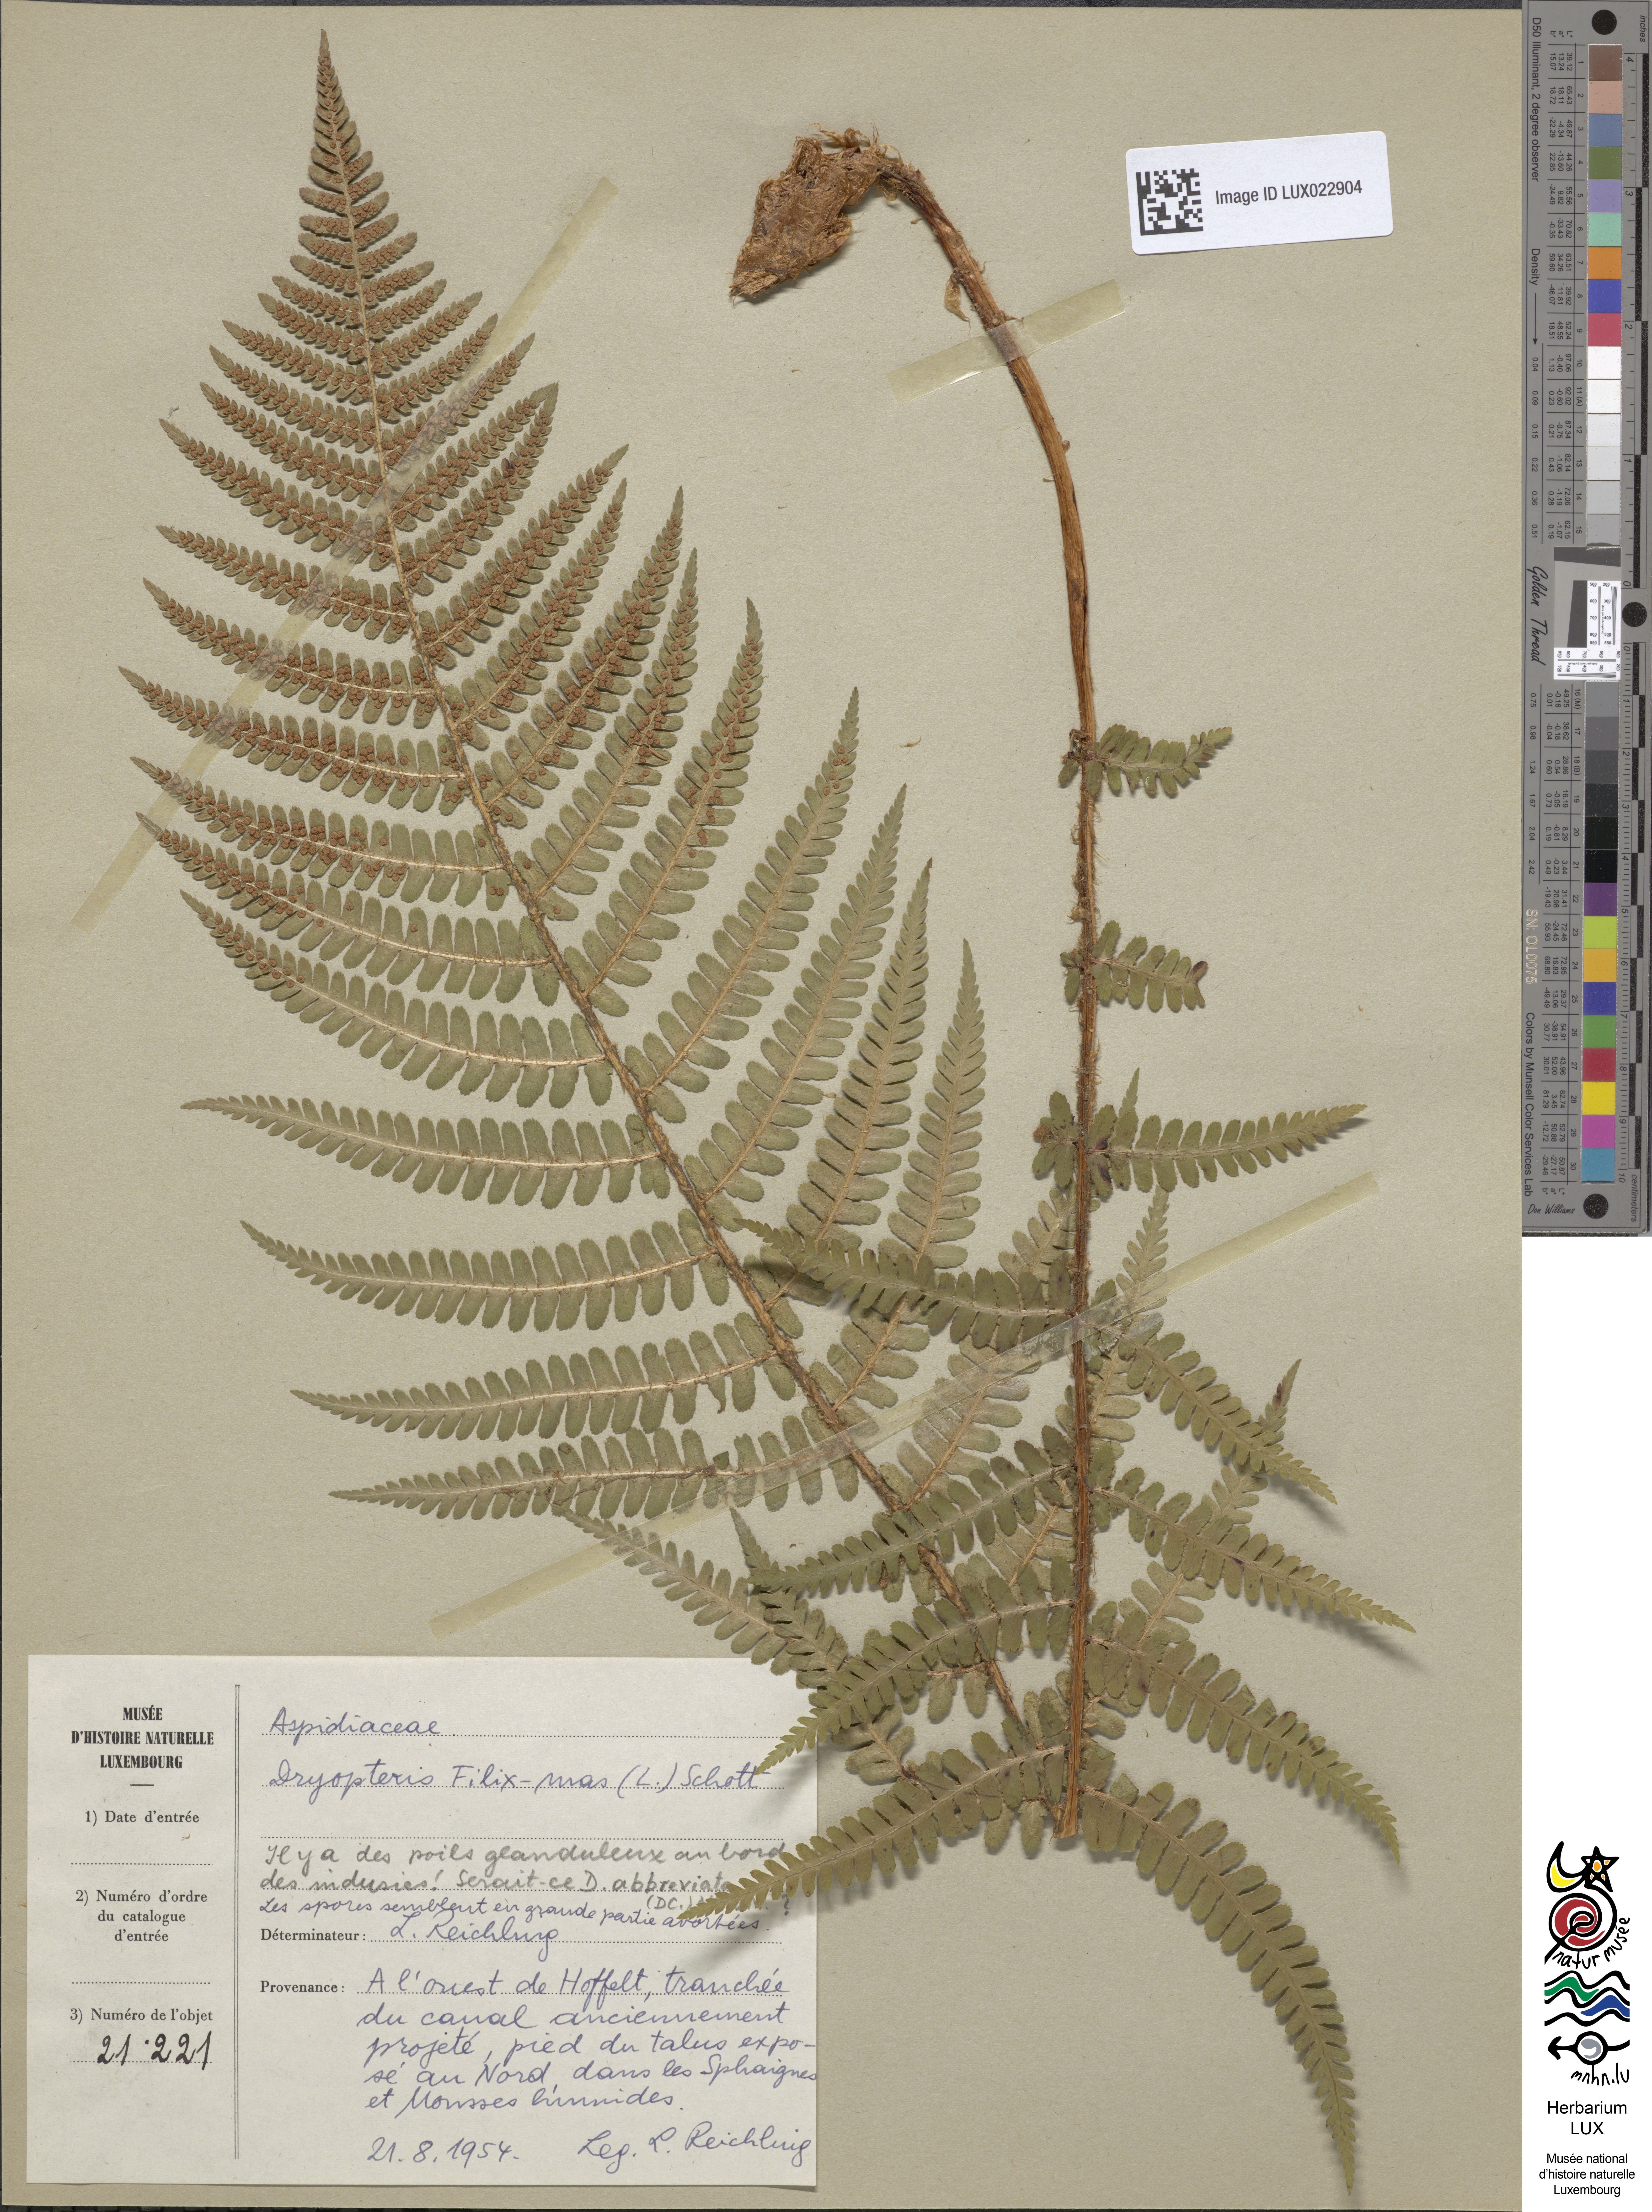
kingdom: Plantae
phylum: Tracheophyta
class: Polypodiopsida
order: Polypodiales
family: Dryopteridaceae
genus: Dryopteris
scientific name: Dryopteris filix-mas
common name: Male fern
